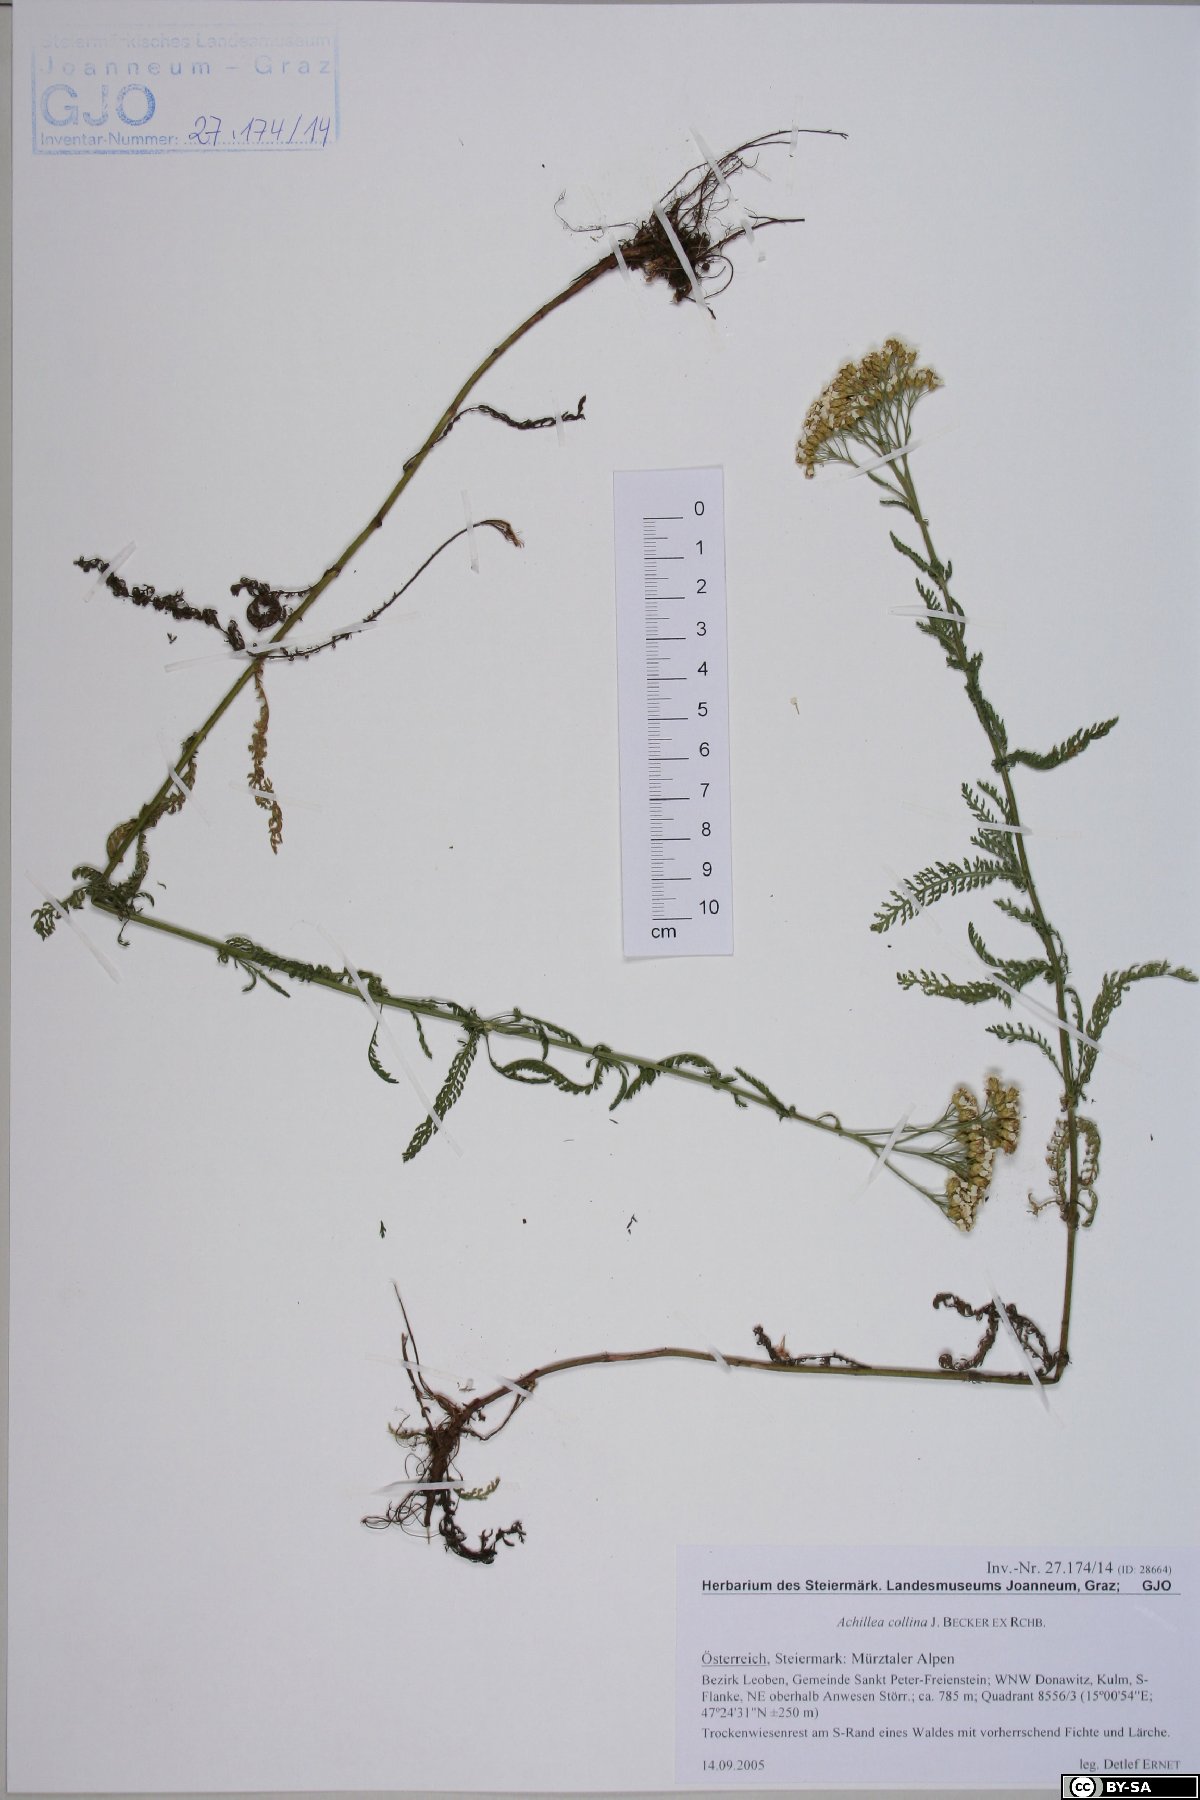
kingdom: Plantae
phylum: Tracheophyta
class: Magnoliopsida
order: Asterales
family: Asteraceae
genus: Achillea
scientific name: Achillea collina
